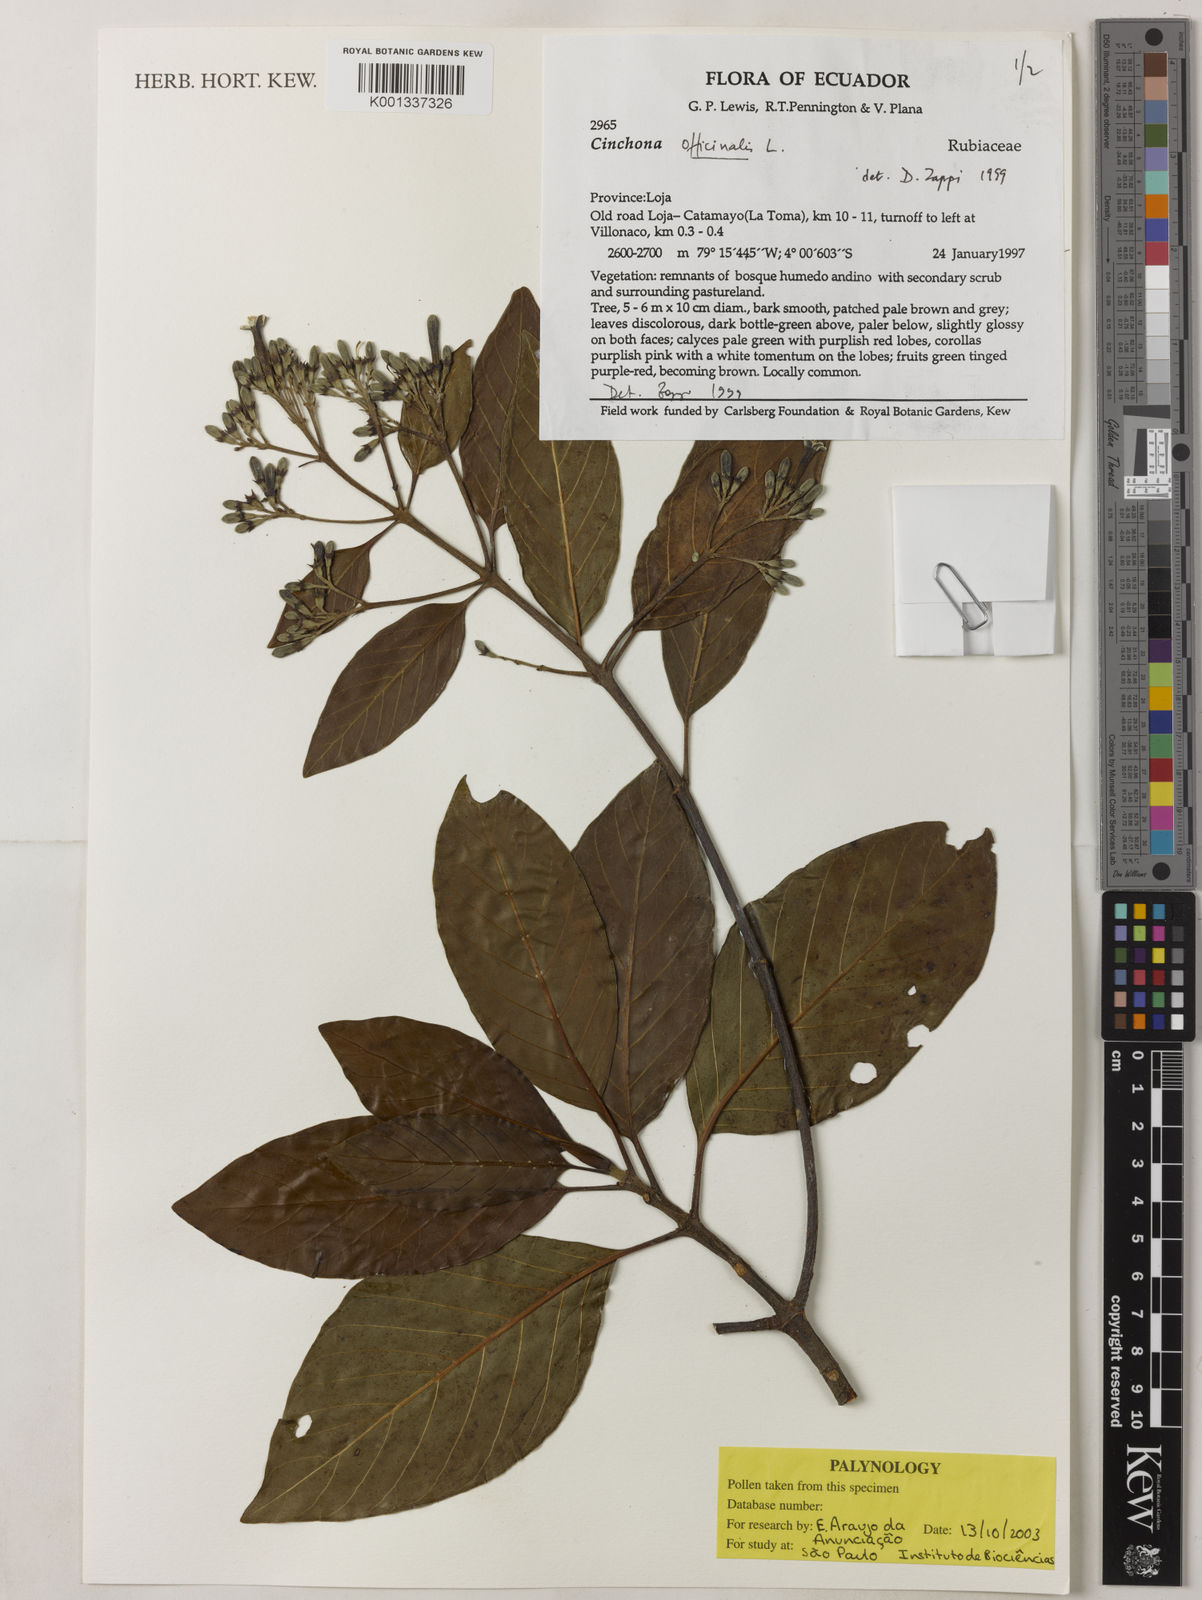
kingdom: Plantae
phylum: Tracheophyta
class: Magnoliopsida
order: Gentianales
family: Rubiaceae
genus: Cinchona
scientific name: Cinchona officinalis
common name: Lojabark
